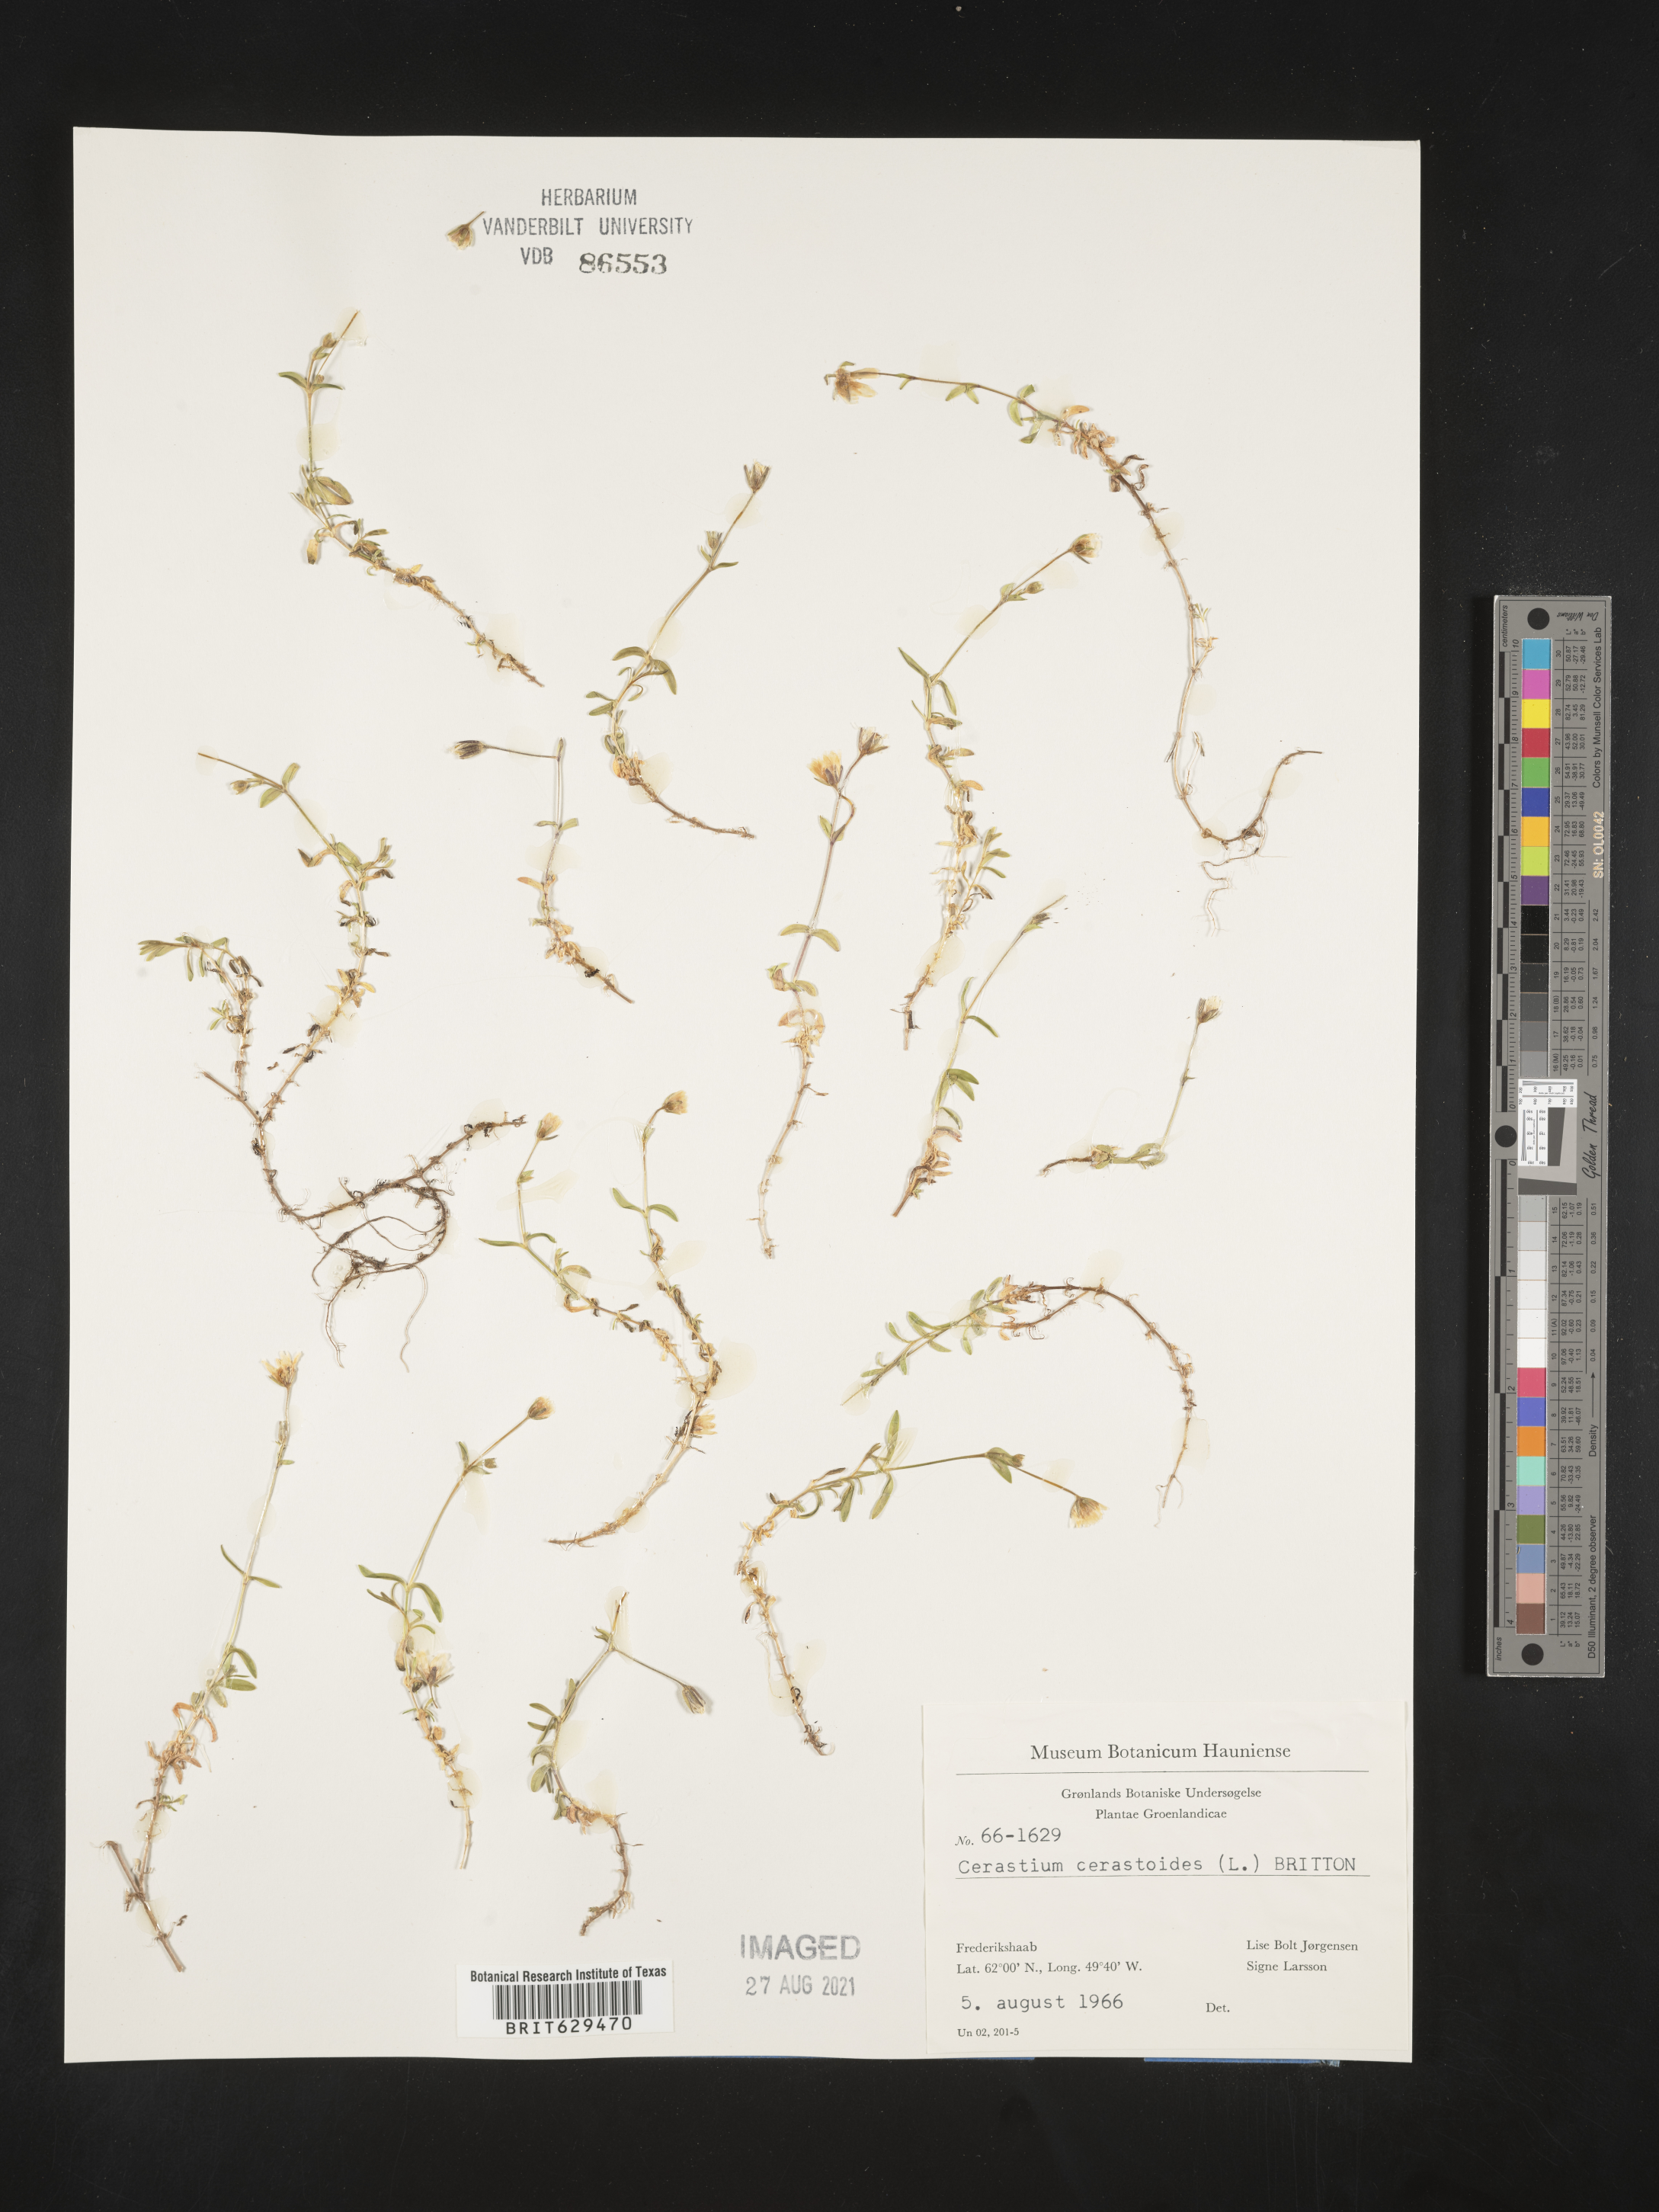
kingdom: Plantae
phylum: Tracheophyta
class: Magnoliopsida
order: Caryophyllales
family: Caryophyllaceae
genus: Dichodon
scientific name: Dichodon cerastoides
